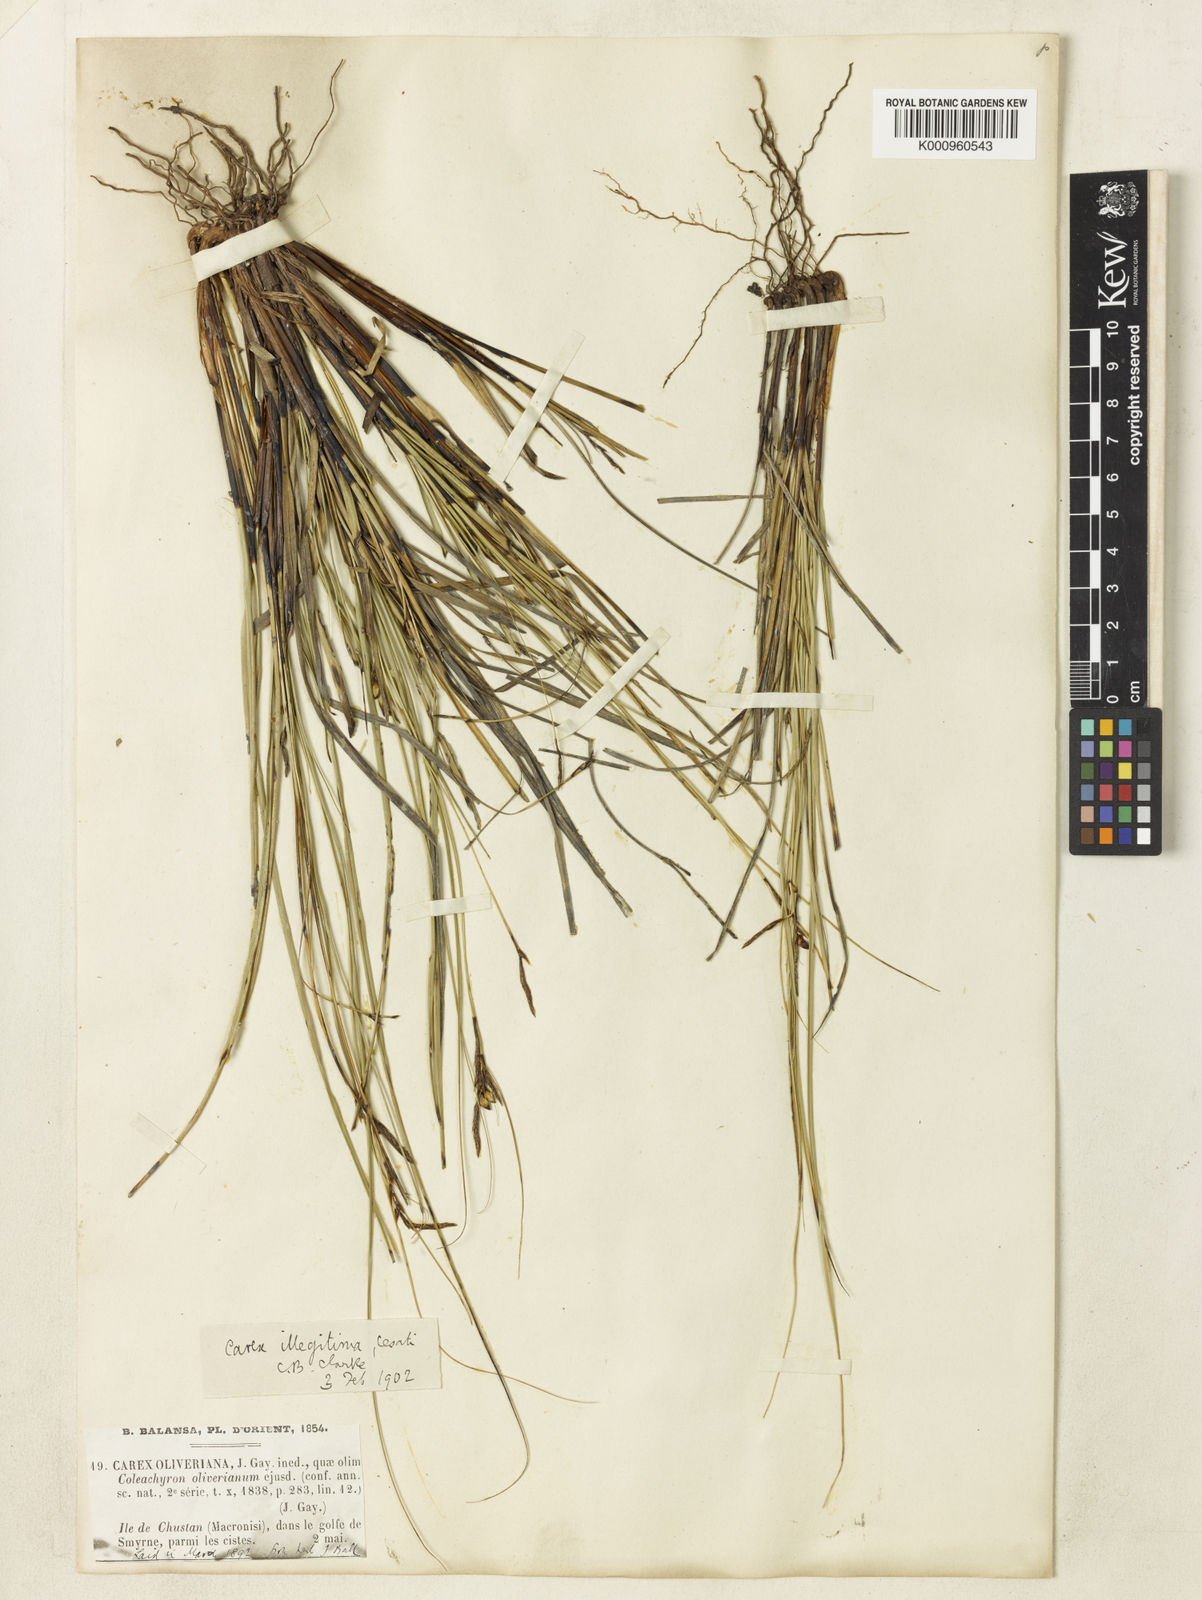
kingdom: Plantae
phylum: Tracheophyta
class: Liliopsida
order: Poales
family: Cyperaceae
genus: Carex
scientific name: Carex illegitima
